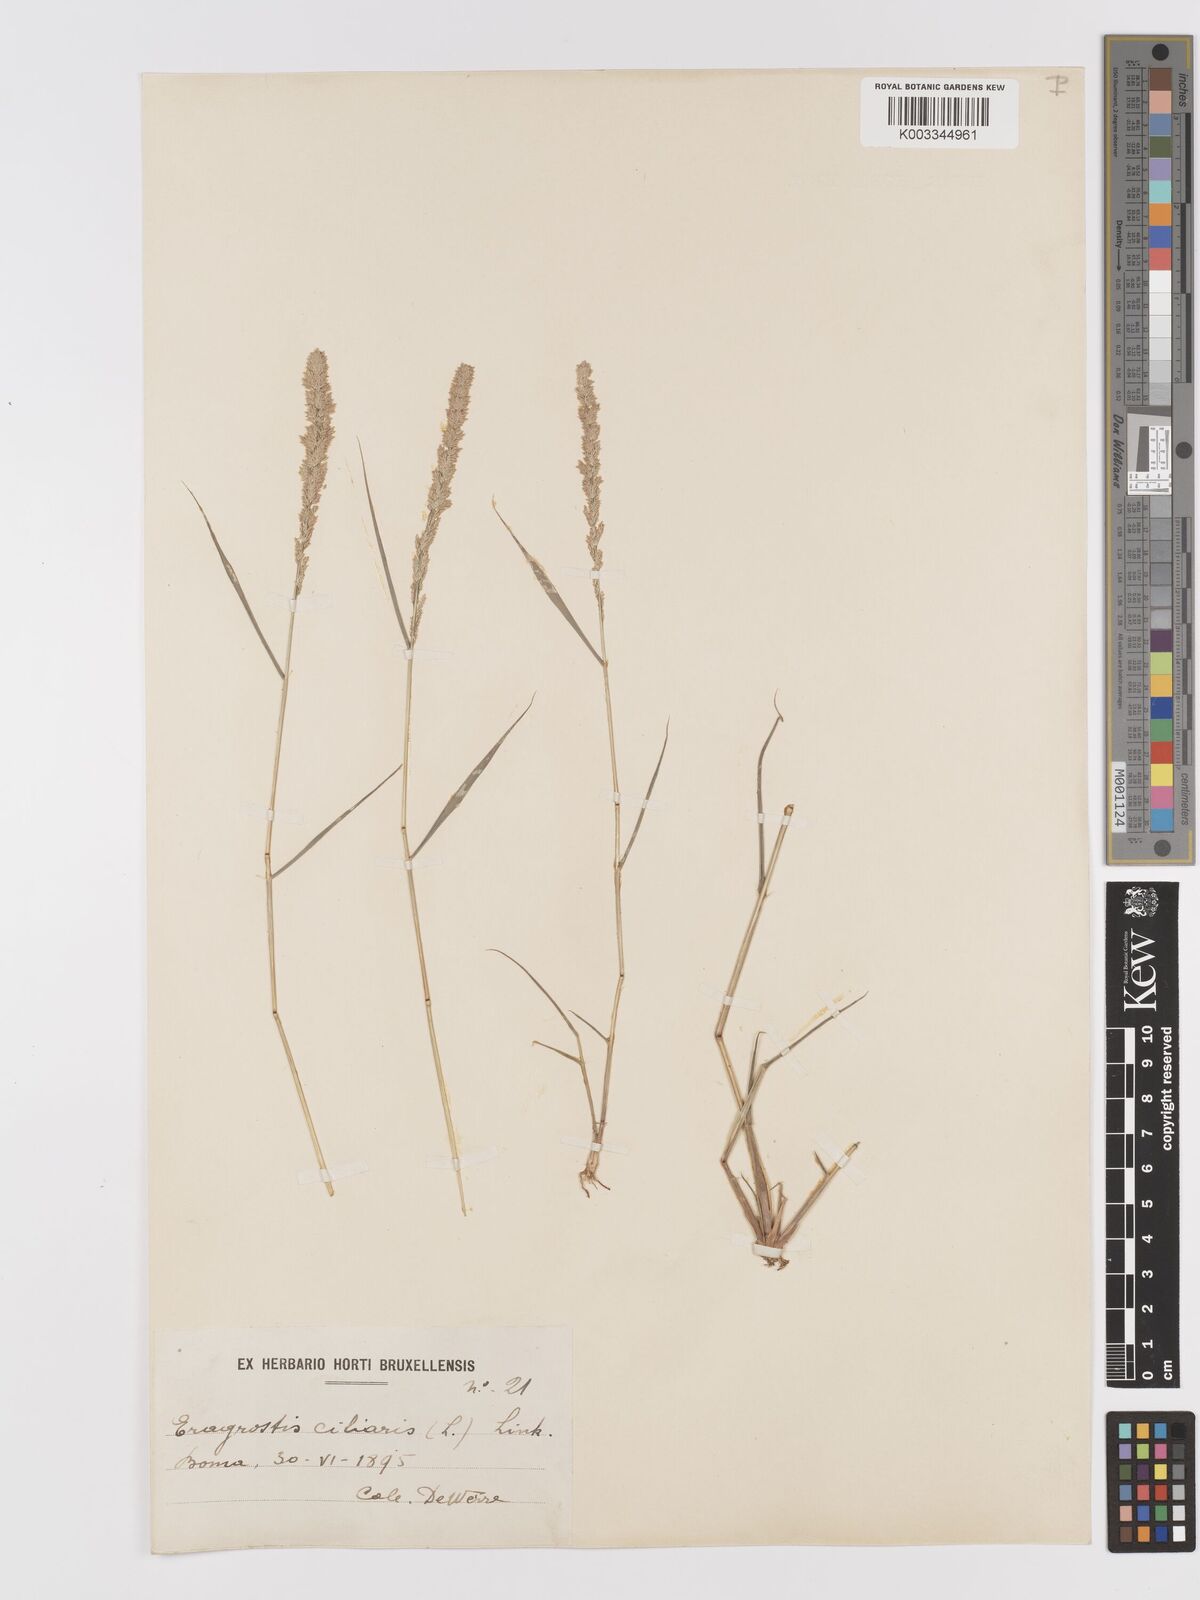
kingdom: Plantae
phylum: Tracheophyta
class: Liliopsida
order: Poales
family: Poaceae
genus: Eragrostis
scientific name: Eragrostis ciliaris
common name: Gophertail lovegrass
